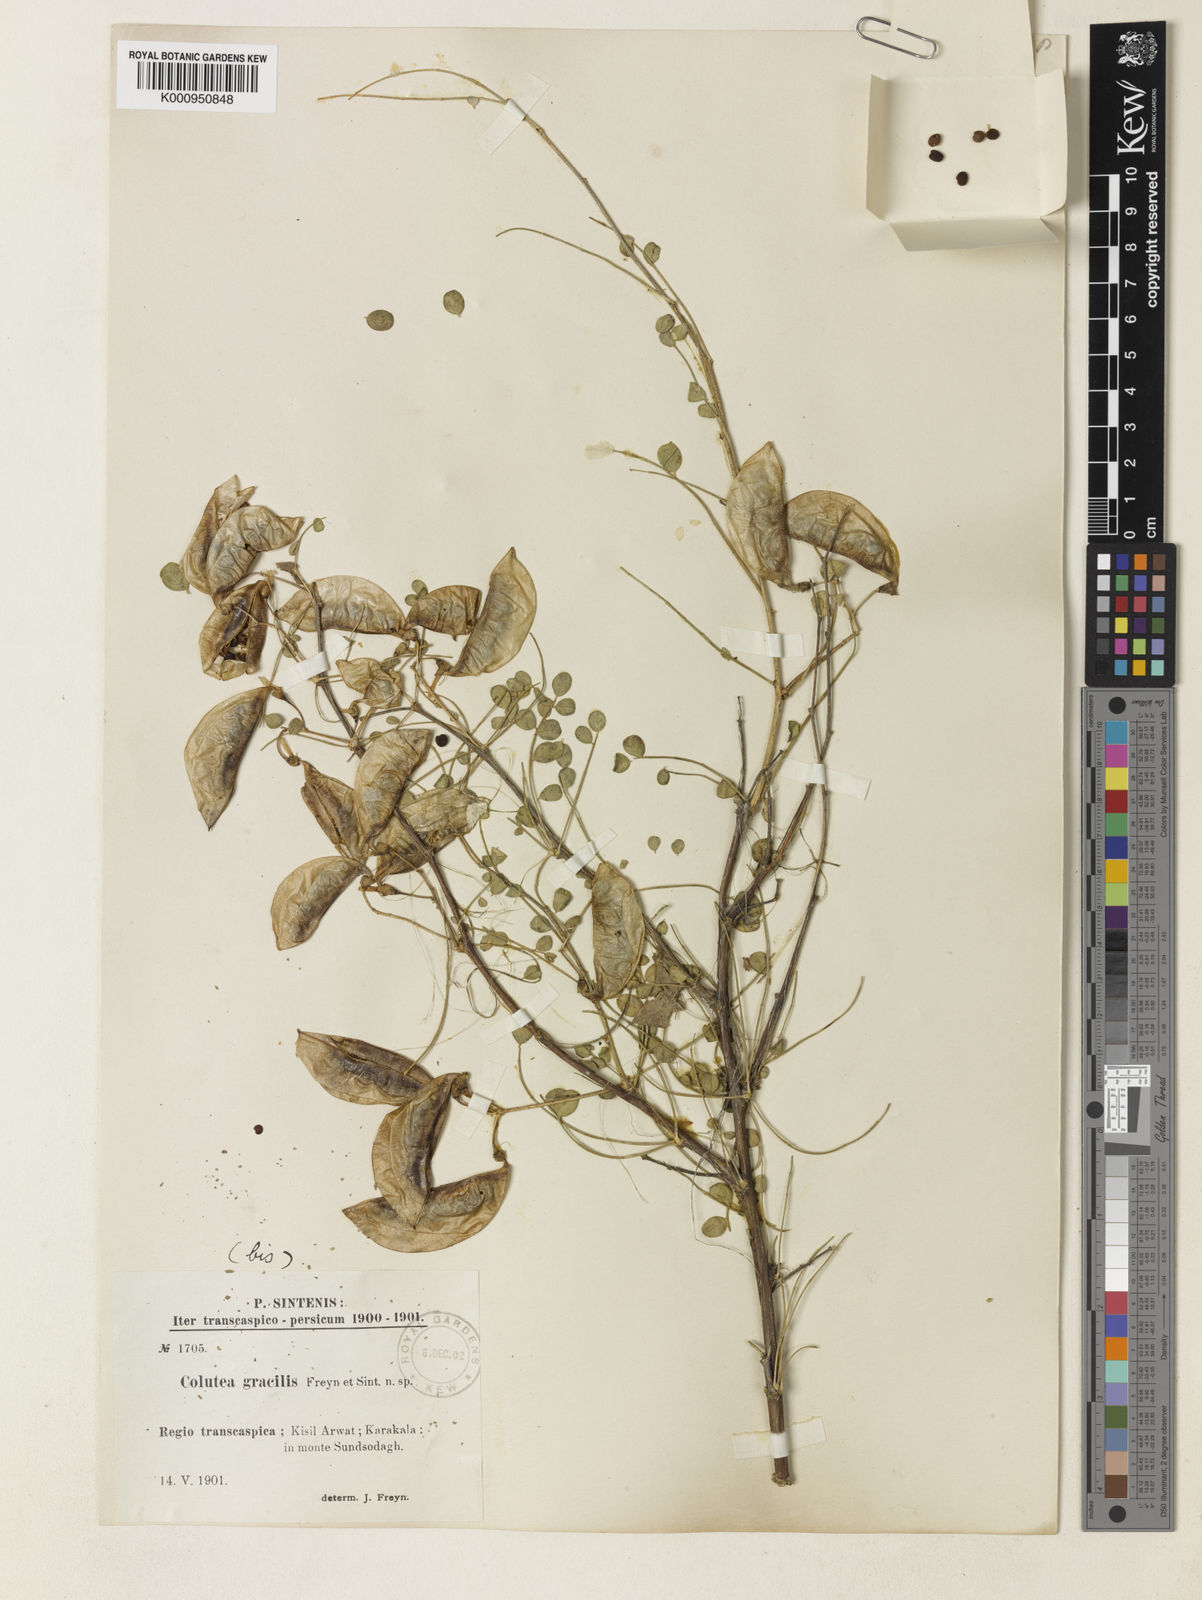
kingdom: Plantae
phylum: Tracheophyta
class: Magnoliopsida
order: Fabales
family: Fabaceae
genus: Colutea
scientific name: Colutea gracilis
